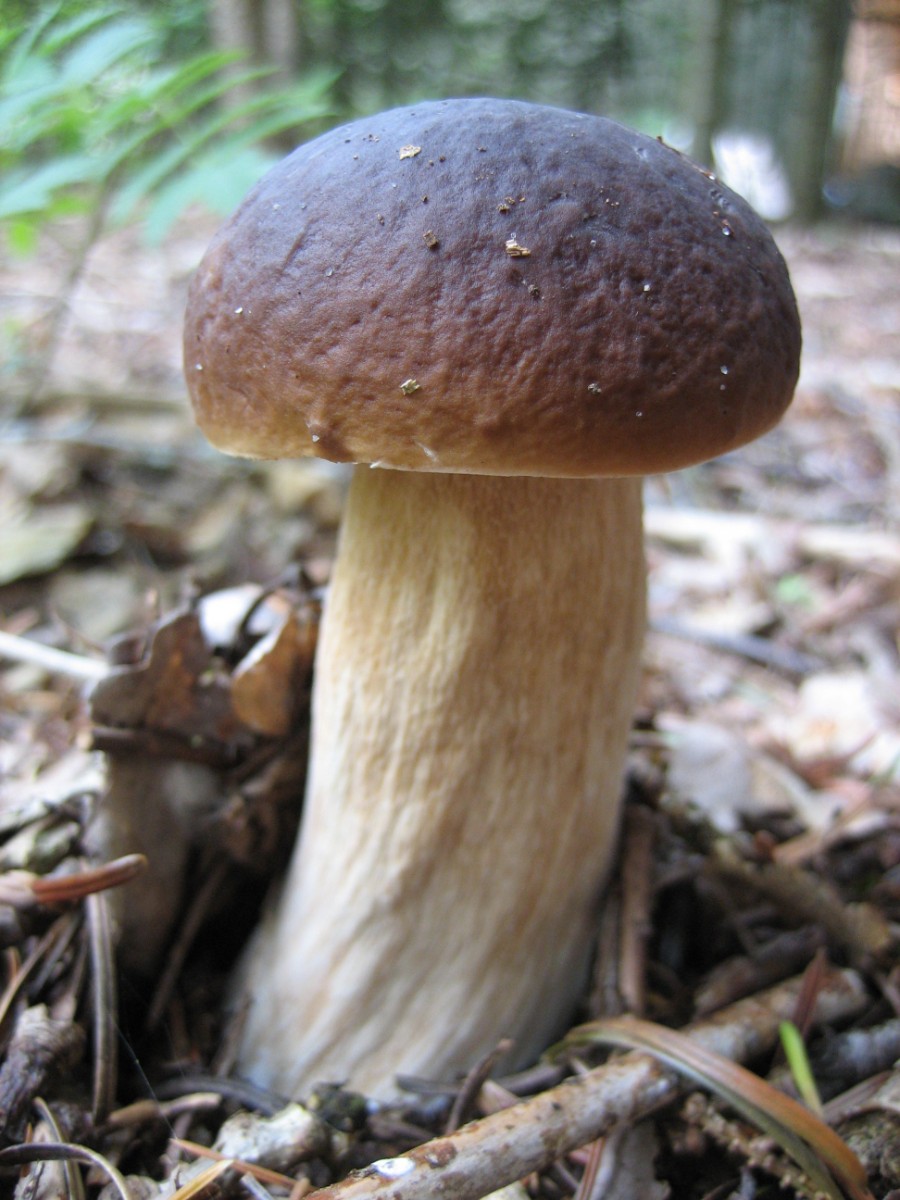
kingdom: Fungi
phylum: Basidiomycota
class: Agaricomycetes
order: Boletales
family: Boletaceae
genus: Boletus
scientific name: Boletus edulis
